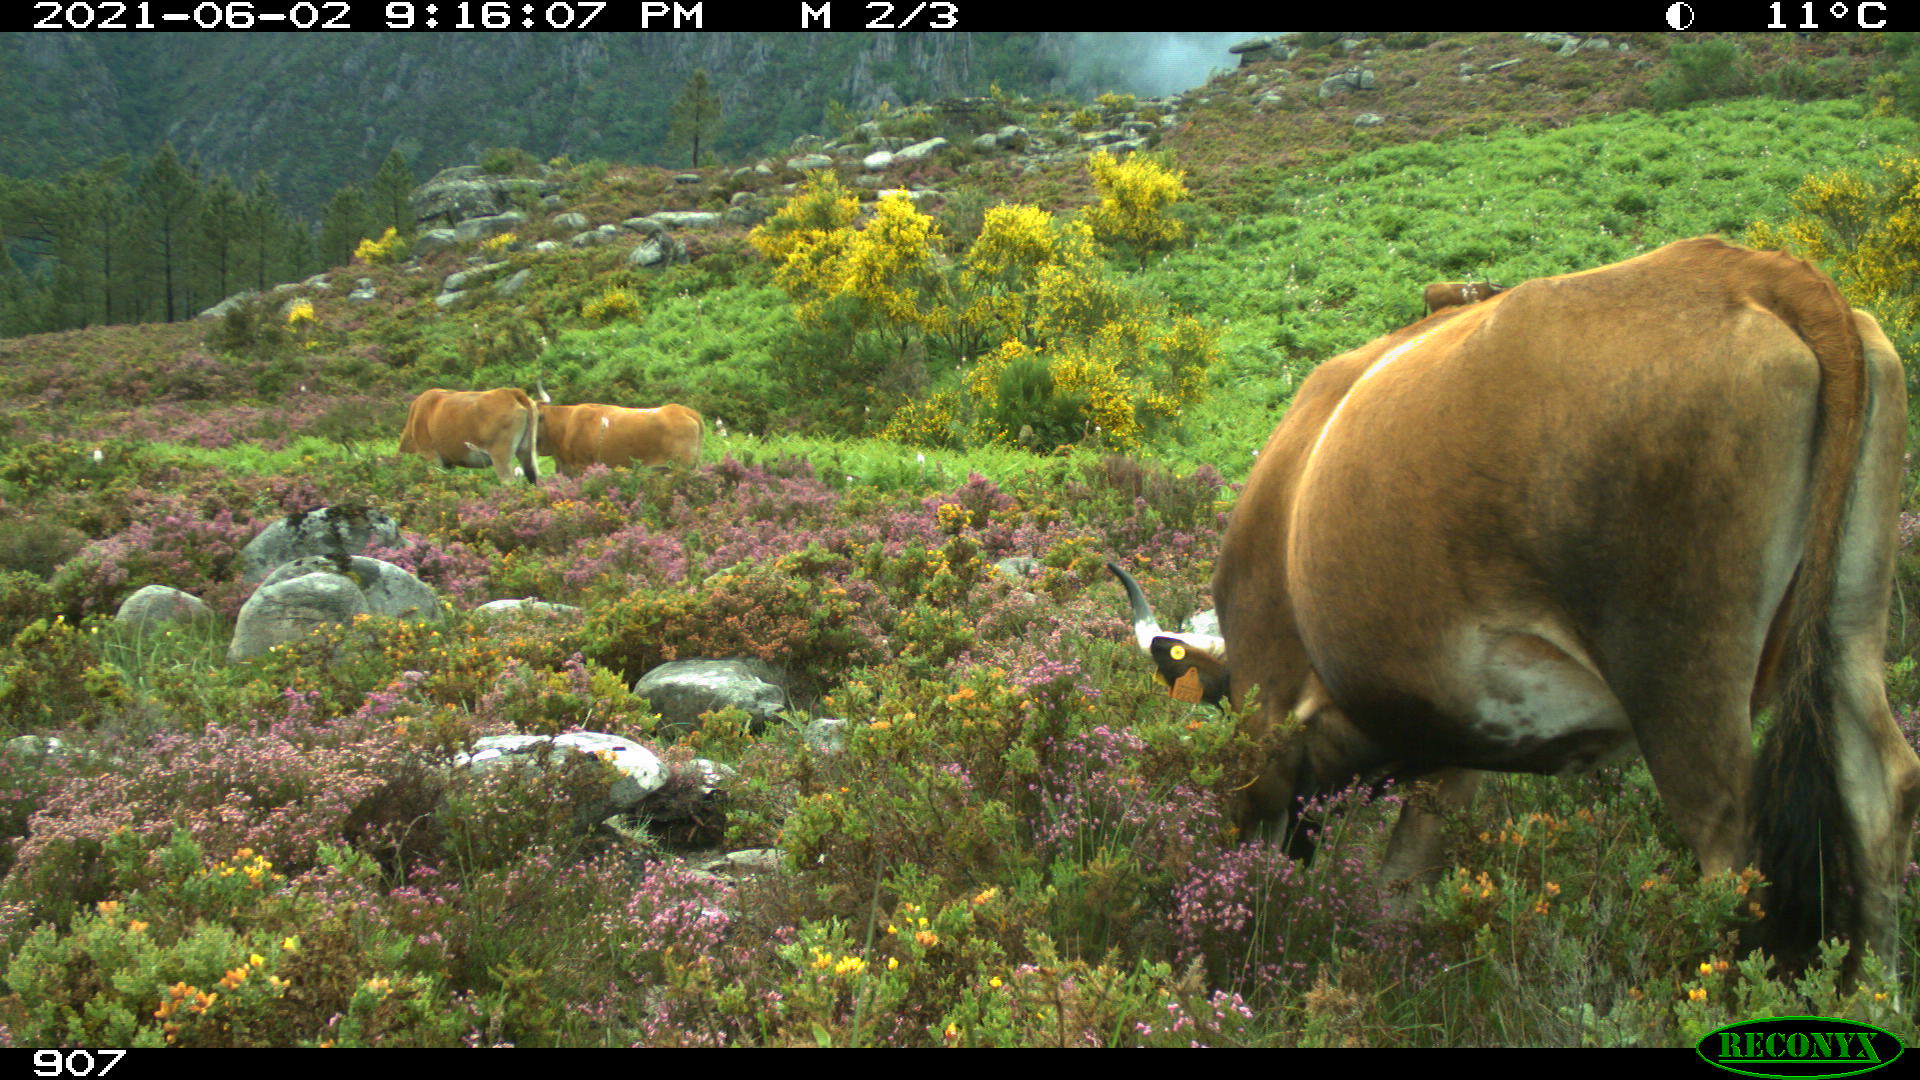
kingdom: Animalia
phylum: Chordata
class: Mammalia
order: Artiodactyla
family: Bovidae
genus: Bos
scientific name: Bos taurus
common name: Domesticated cattle
